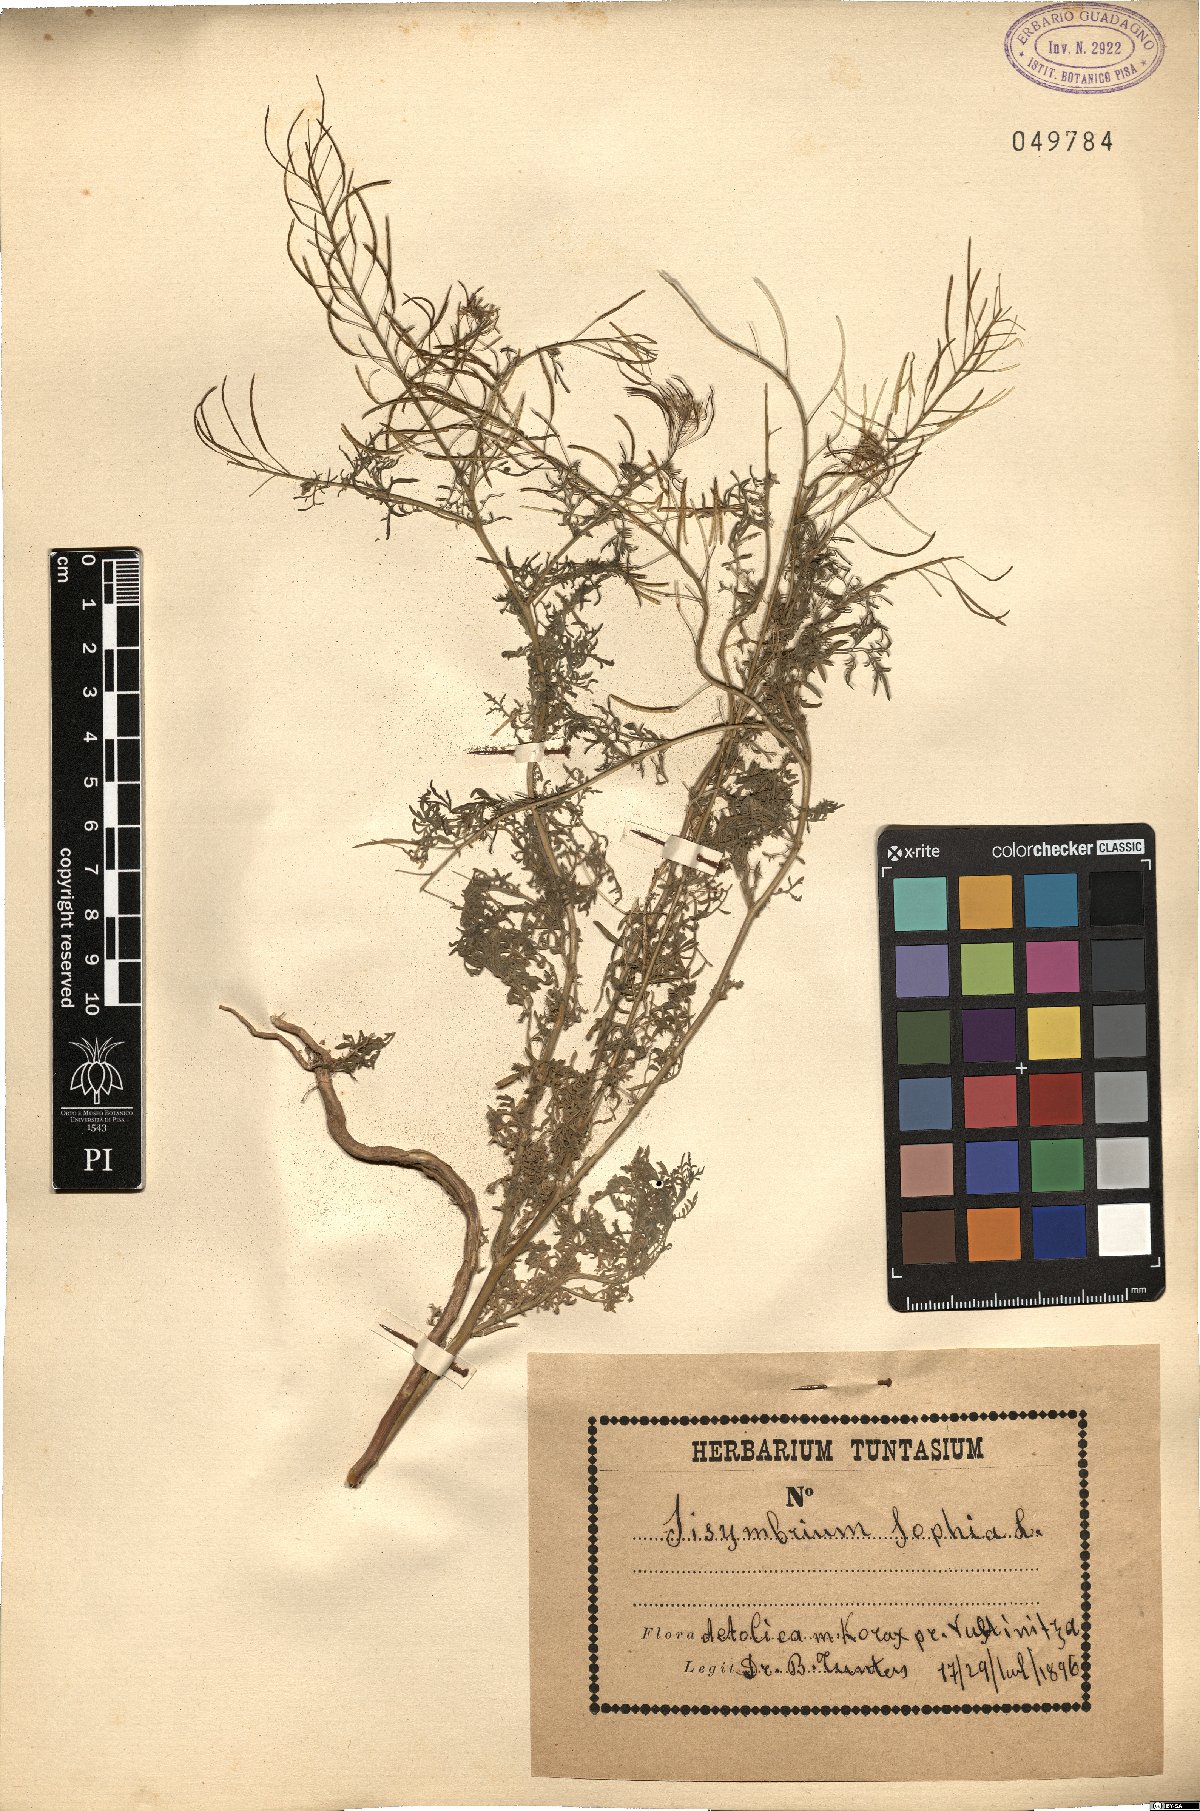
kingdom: Plantae
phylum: Tracheophyta
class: Magnoliopsida
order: Brassicales
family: Brassicaceae
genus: Descurainia
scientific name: Descurainia sophia
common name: Flixweed
